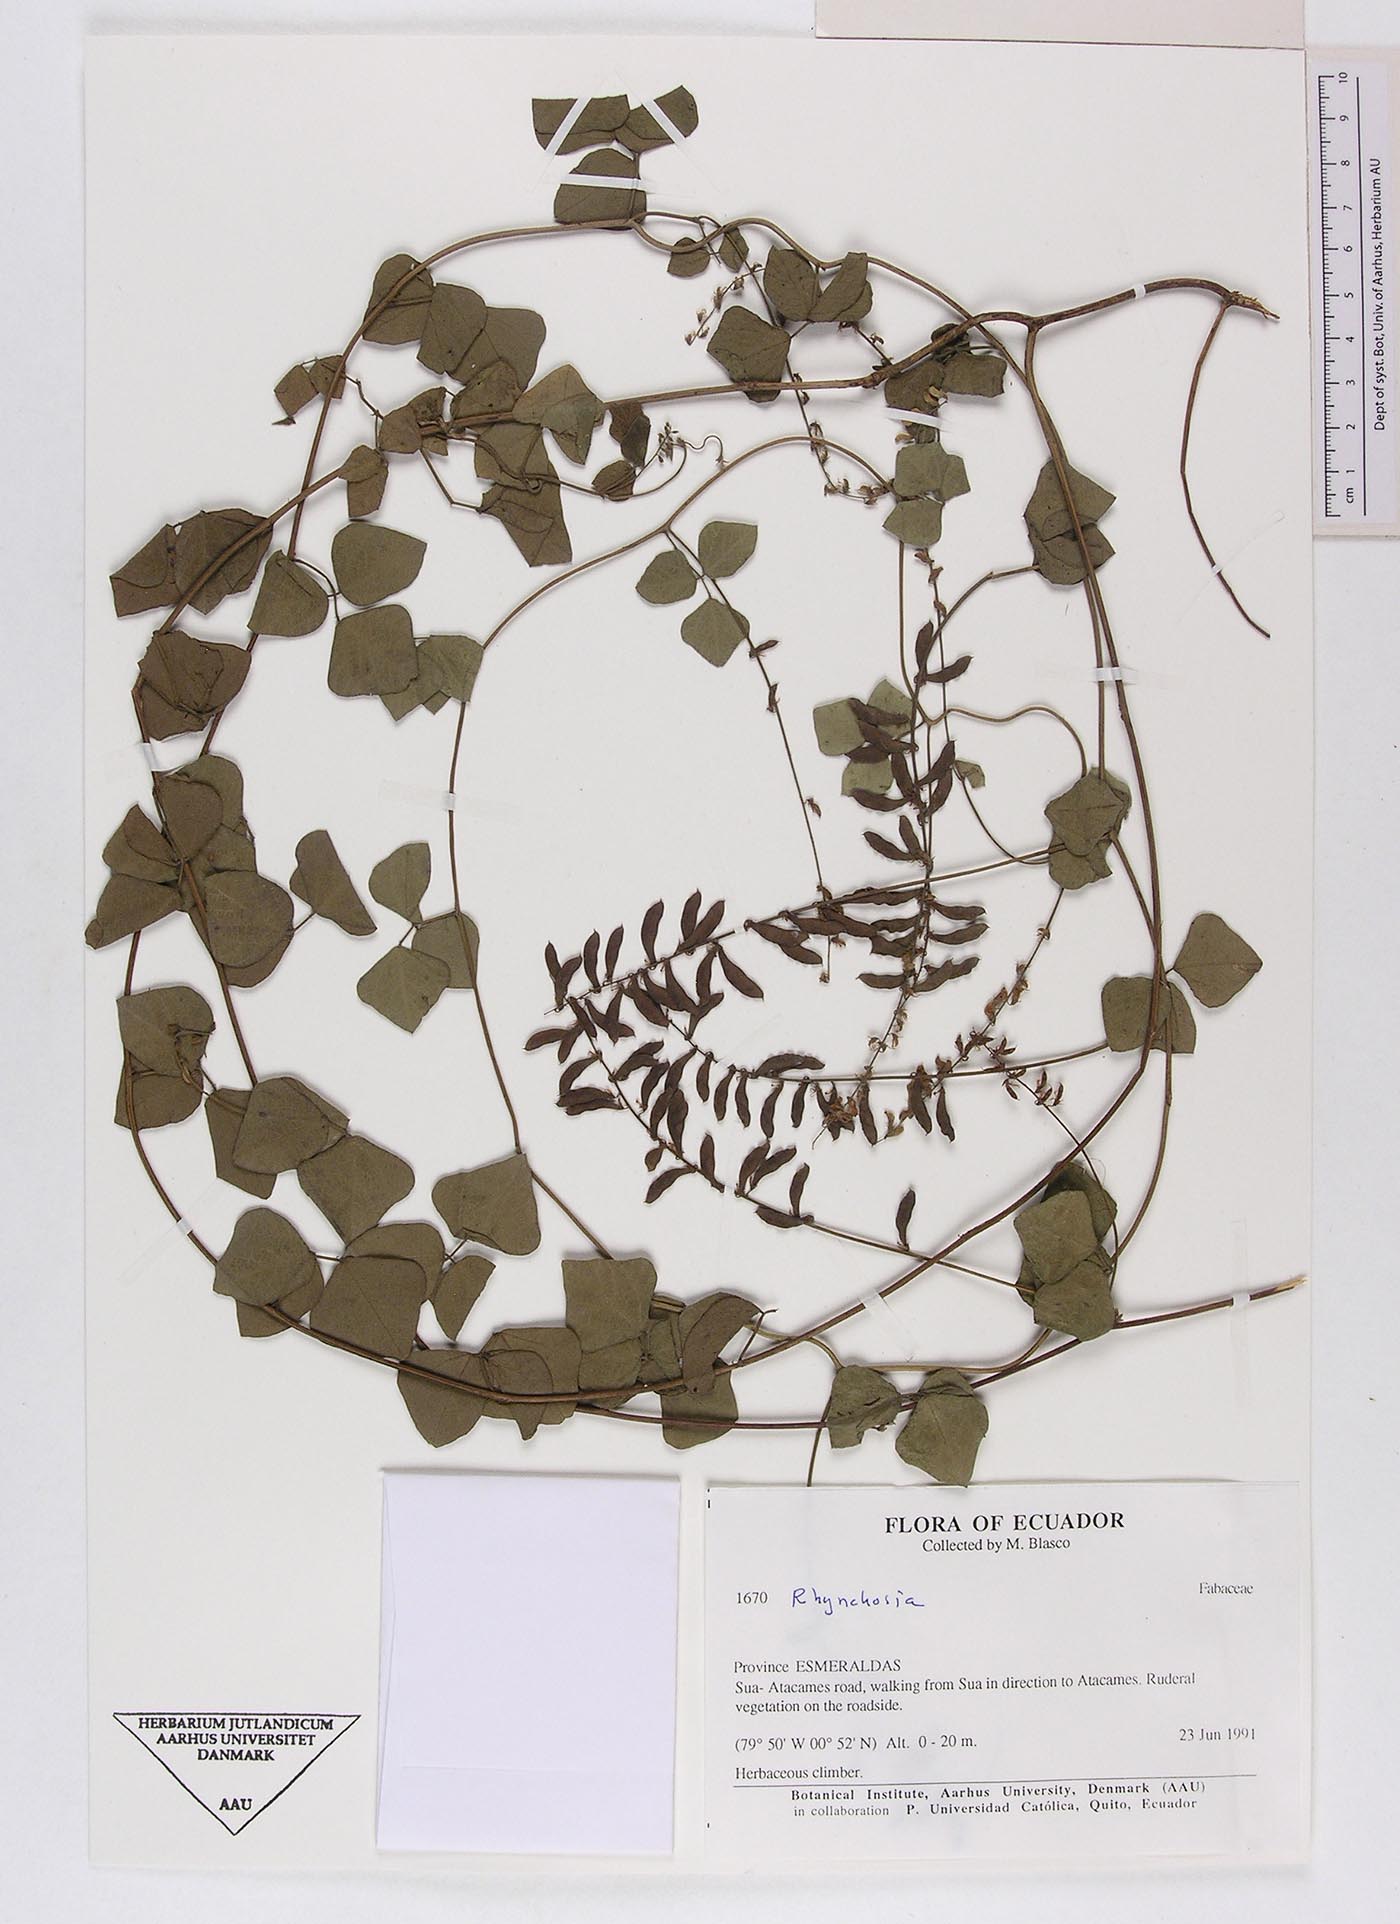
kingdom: Plantae
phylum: Tracheophyta
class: Magnoliopsida
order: Fabales
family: Fabaceae
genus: Rhynchosia
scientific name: Rhynchosia minima
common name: Least snoutbean
